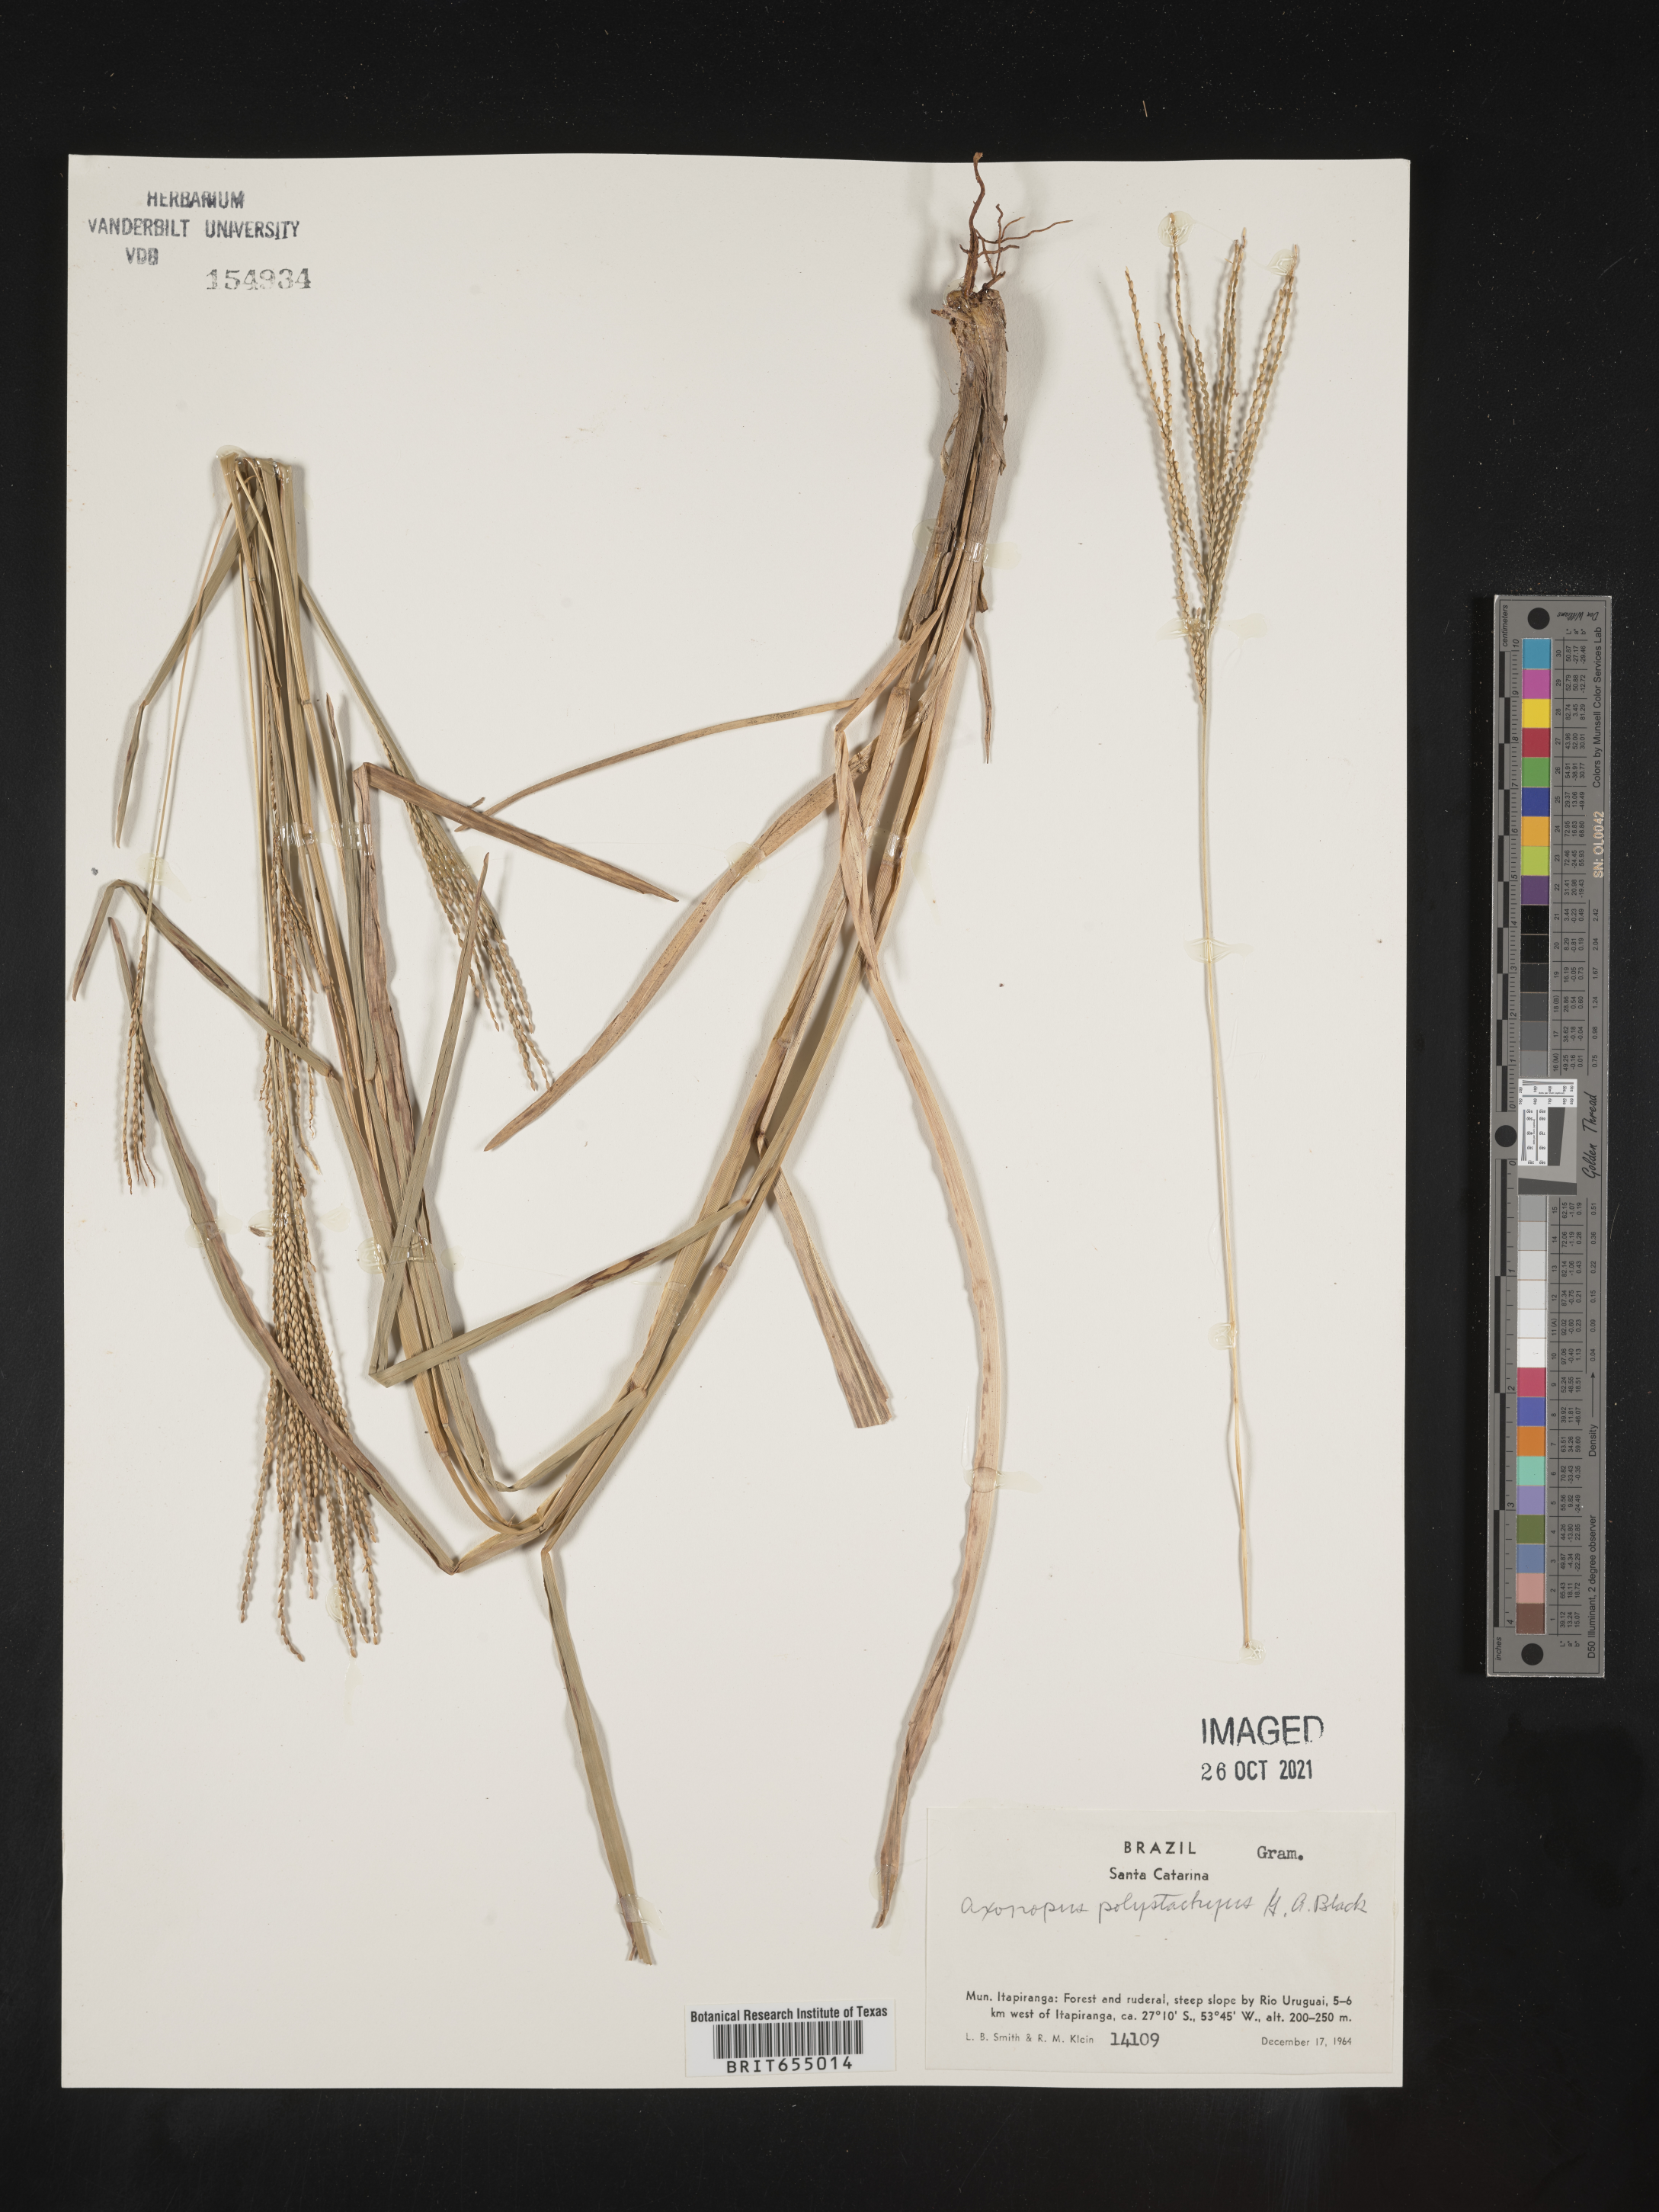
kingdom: Plantae
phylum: Tracheophyta
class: Liliopsida
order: Poales
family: Poaceae
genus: Axonopus
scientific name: Axonopus
